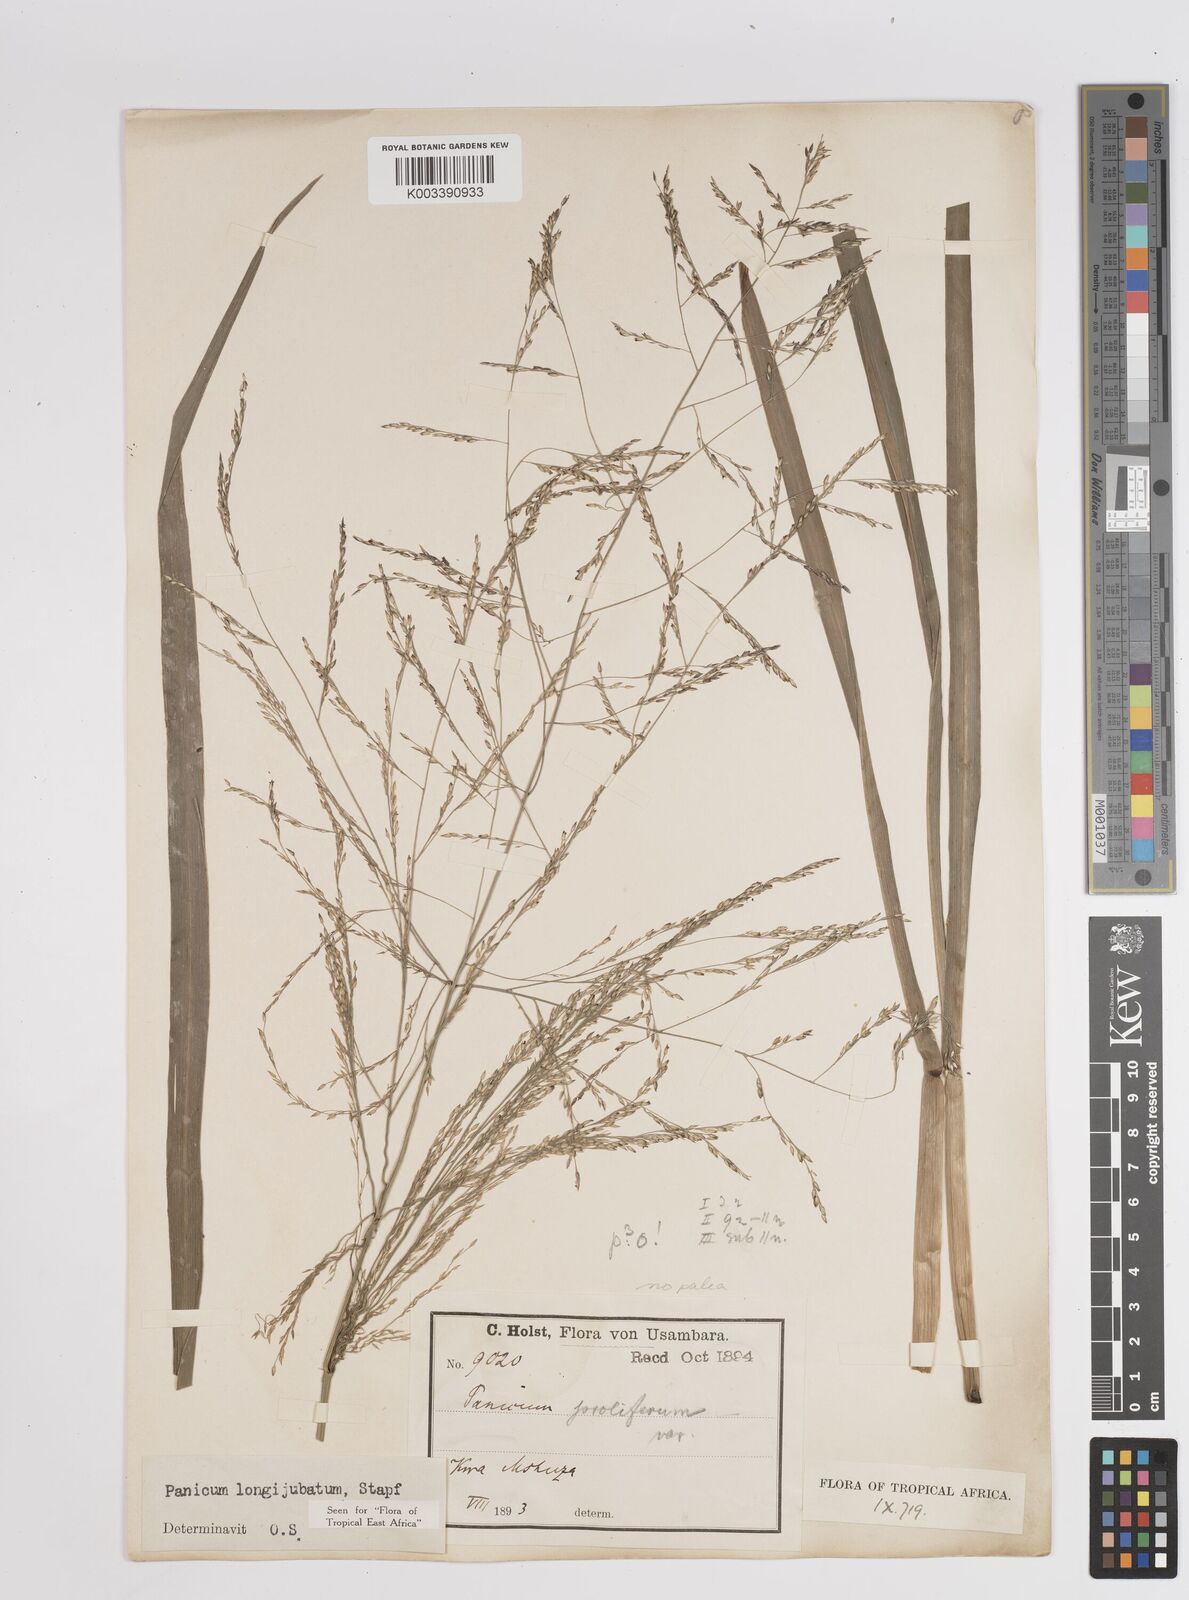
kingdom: Plantae
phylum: Tracheophyta
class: Liliopsida
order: Poales
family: Poaceae
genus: Panicum
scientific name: Panicum subalbidum
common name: Elbow buffalo grass
